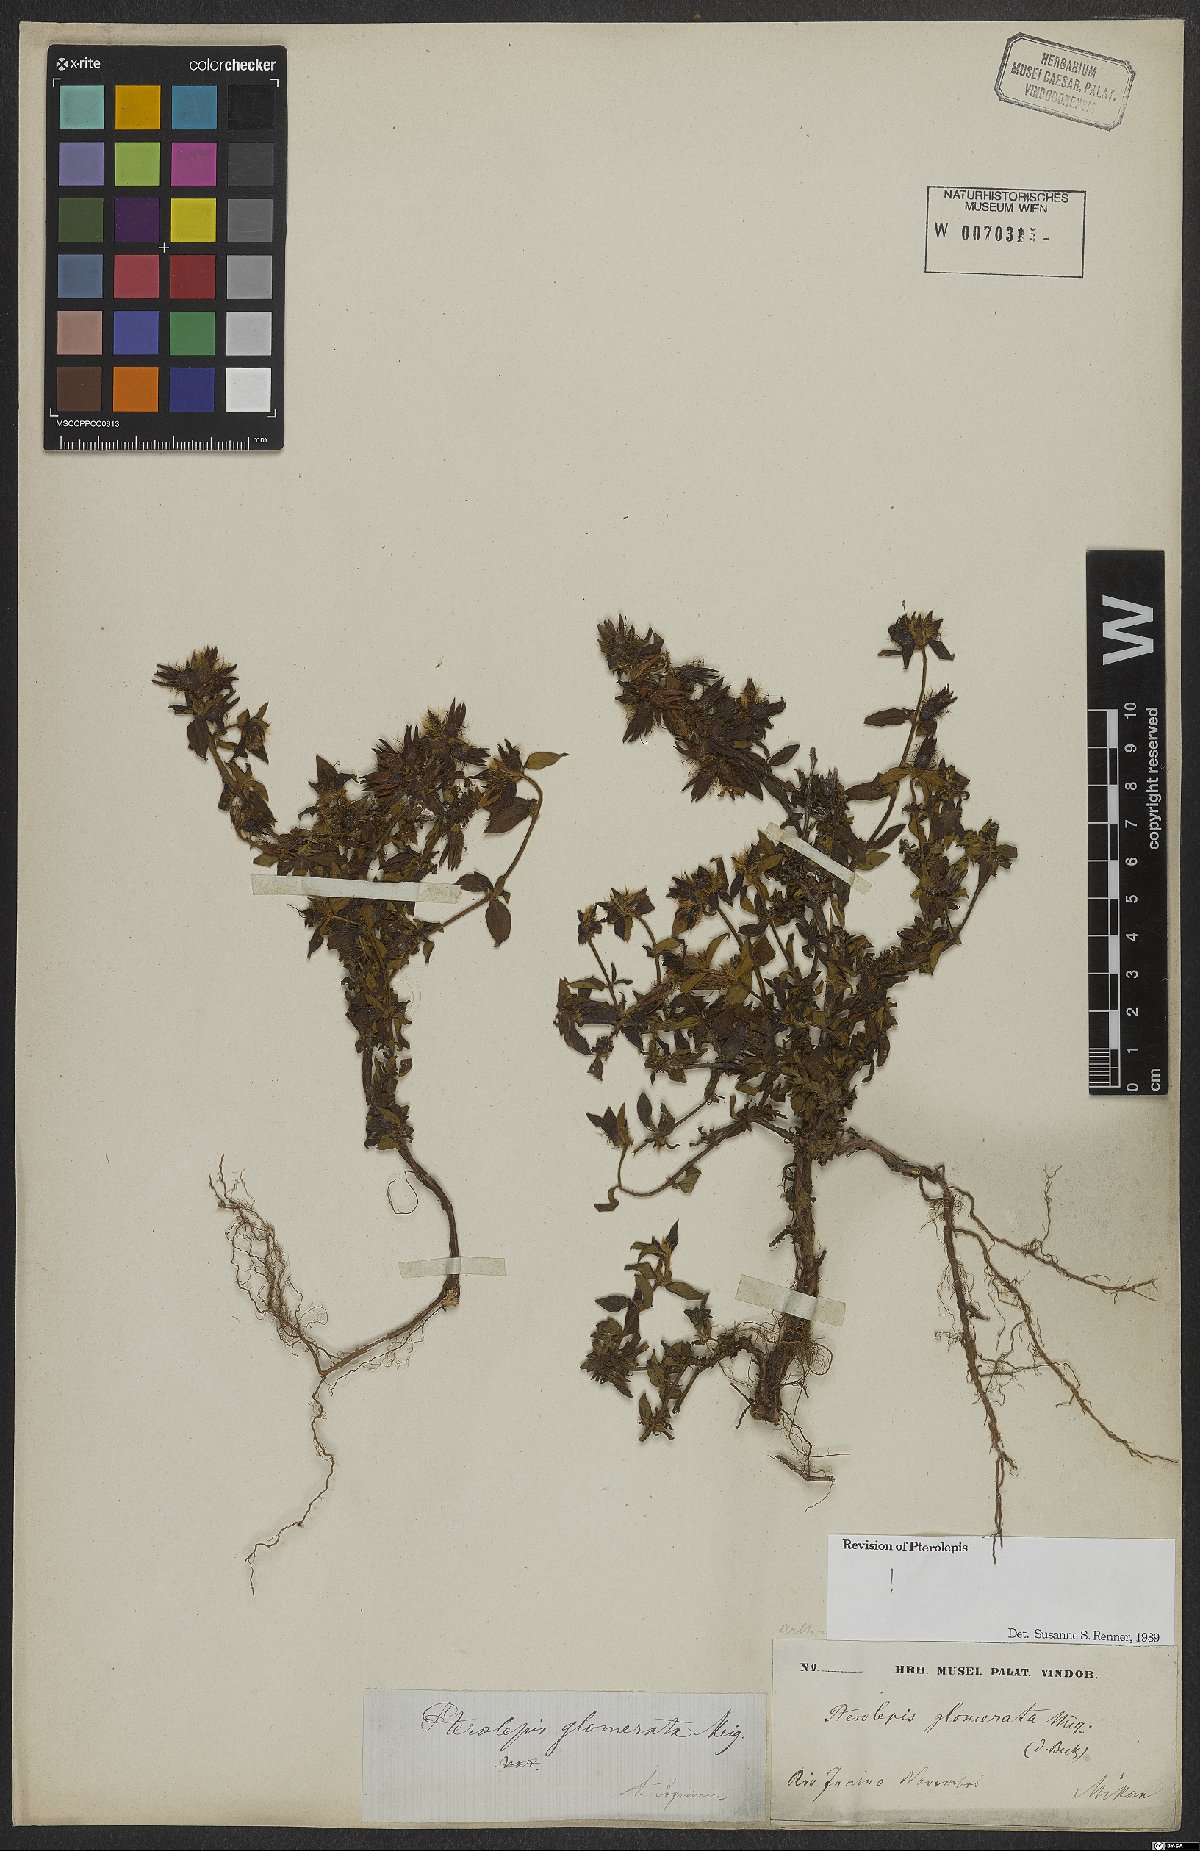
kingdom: Plantae
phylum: Tracheophyta
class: Magnoliopsida
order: Myrtales
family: Melastomataceae
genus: Pterolepis
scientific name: Pterolepis glomerata
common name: False meadowbeauty
